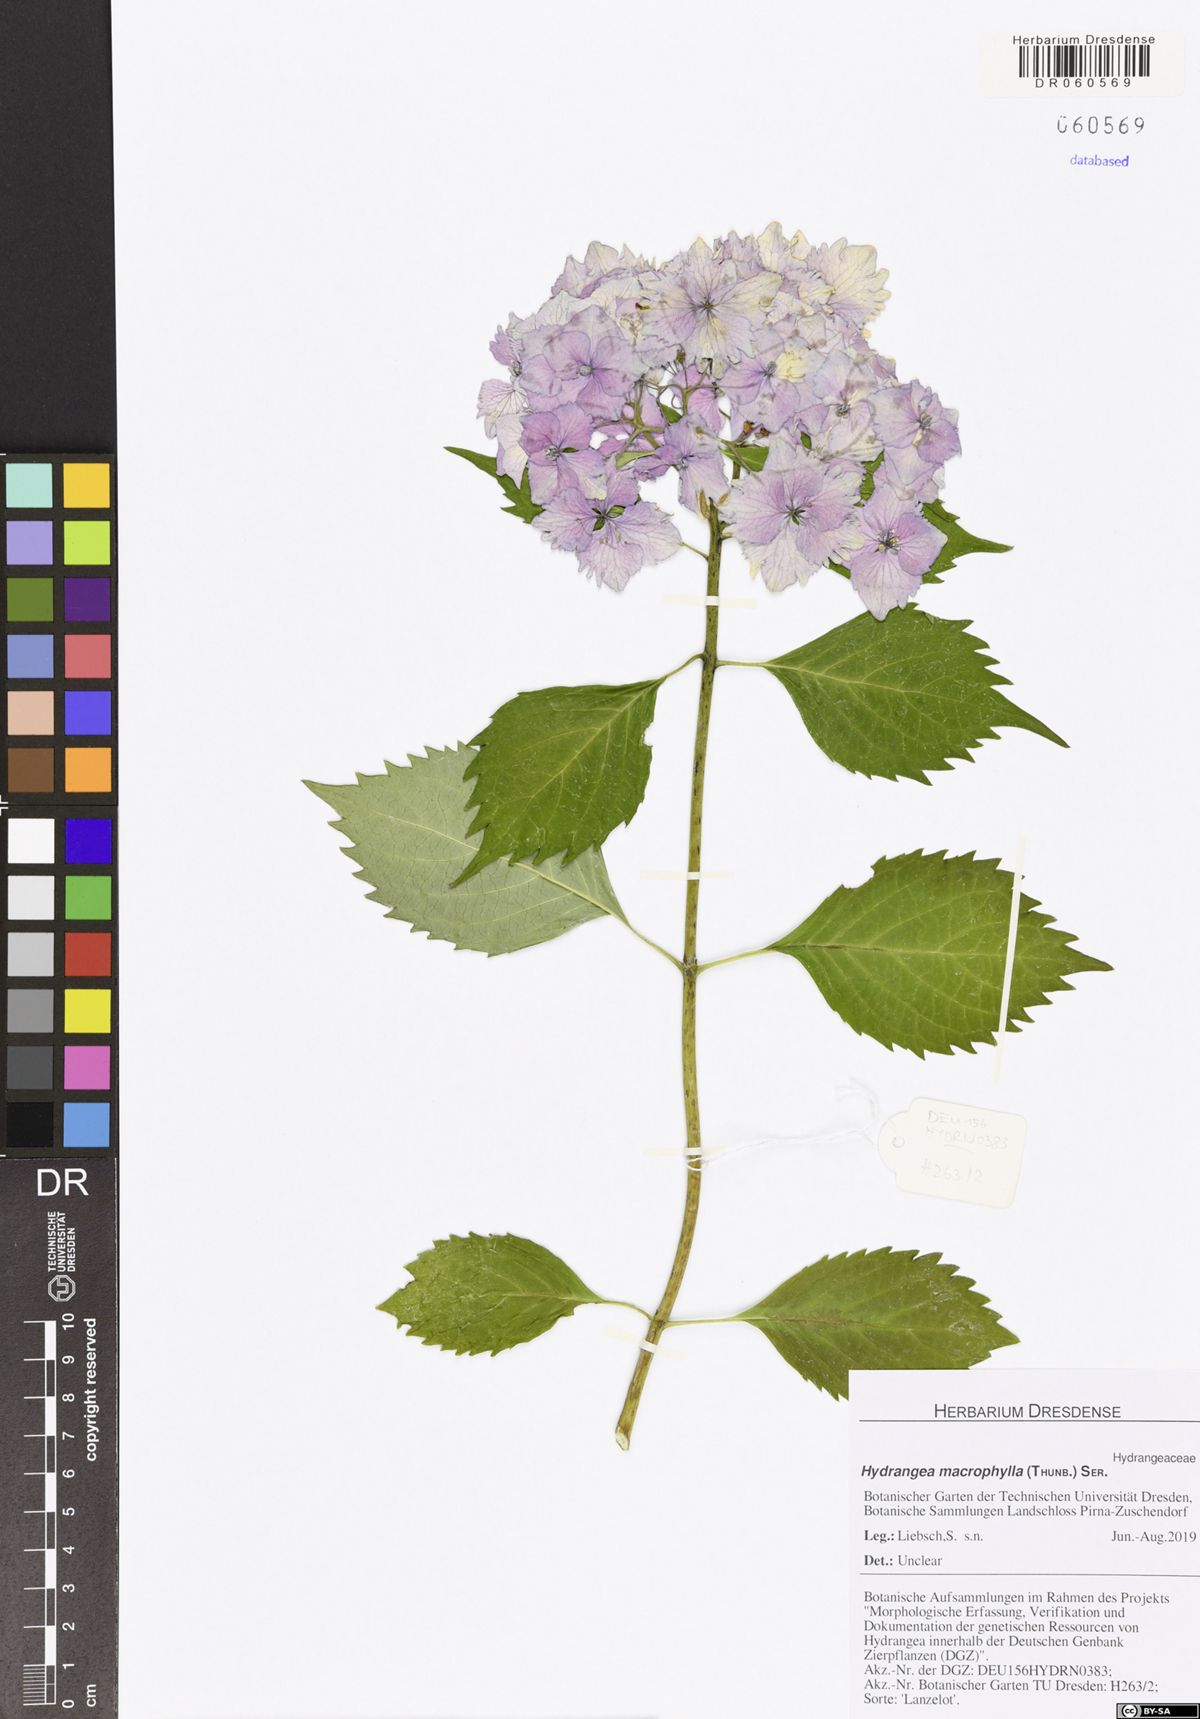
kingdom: Plantae
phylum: Tracheophyta
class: Magnoliopsida
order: Cornales
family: Hydrangeaceae
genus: Hydrangea
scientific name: Hydrangea macrophylla
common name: Hydrangea
